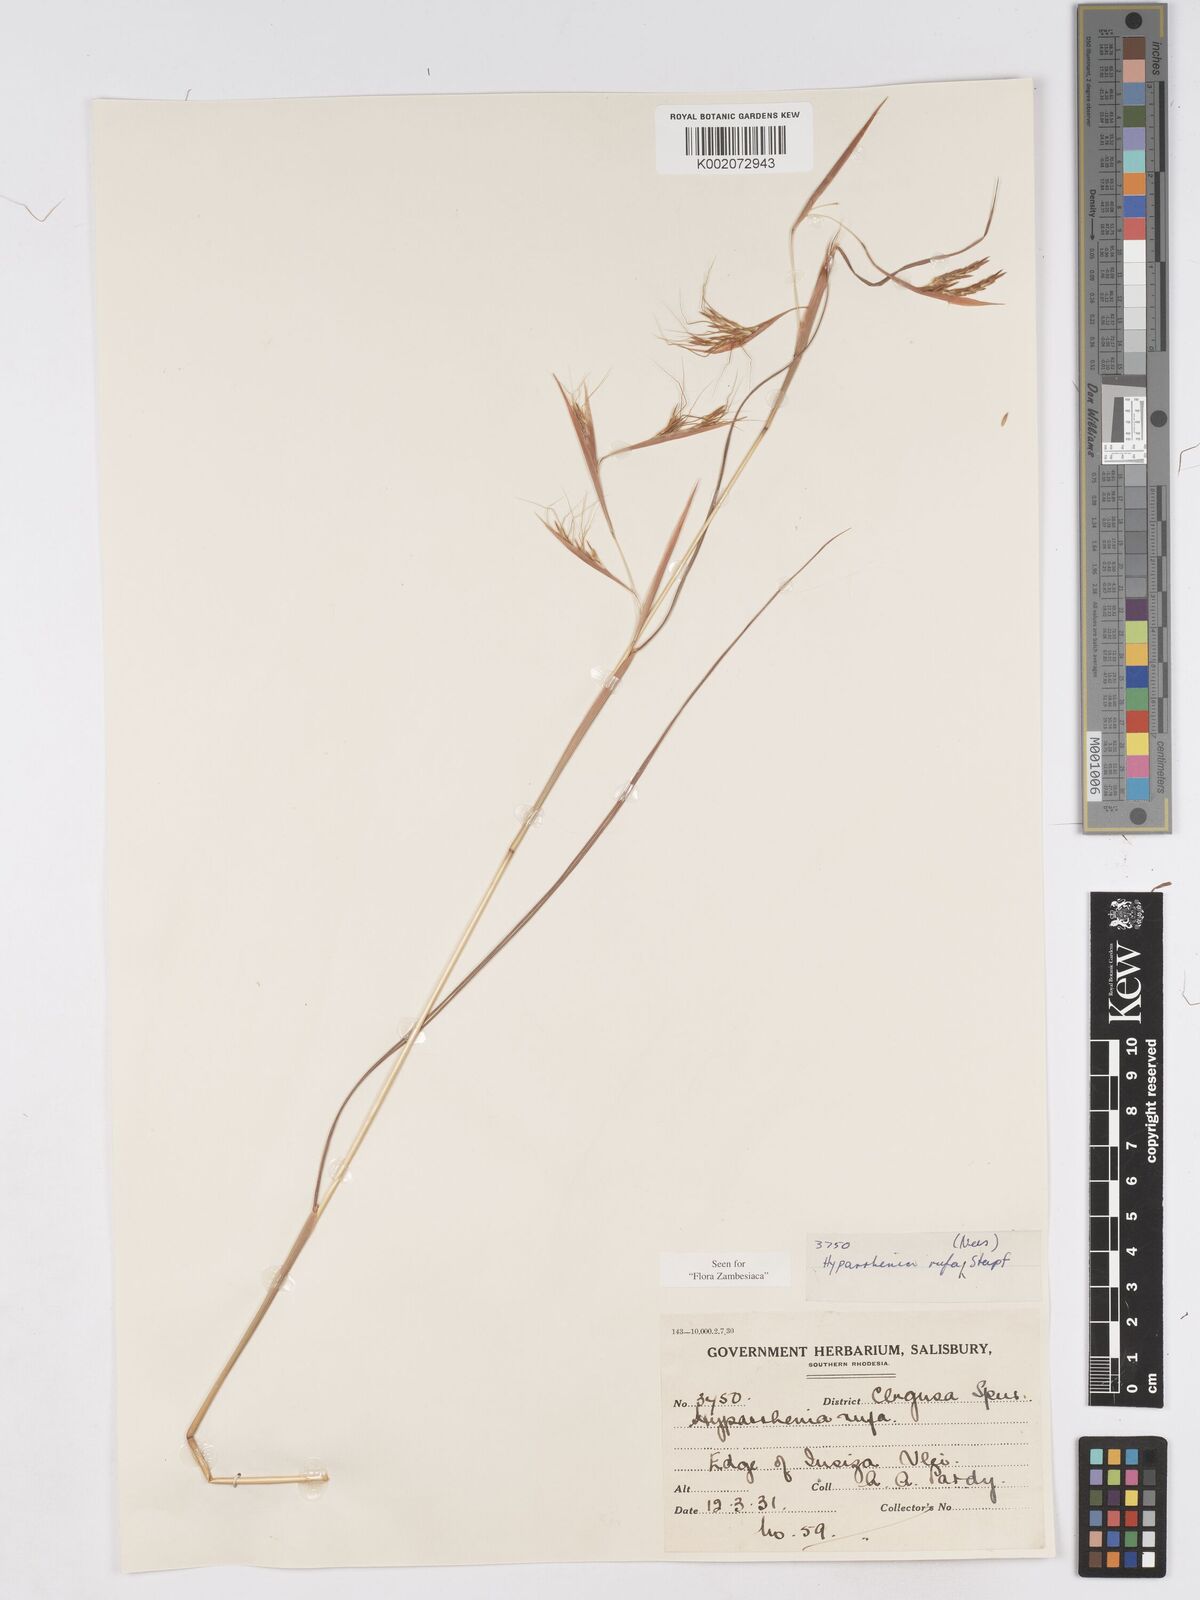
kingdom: Plantae
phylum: Tracheophyta
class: Liliopsida
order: Poales
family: Poaceae
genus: Hyparrhenia
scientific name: Hyparrhenia rufa
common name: Jaraguagrass
